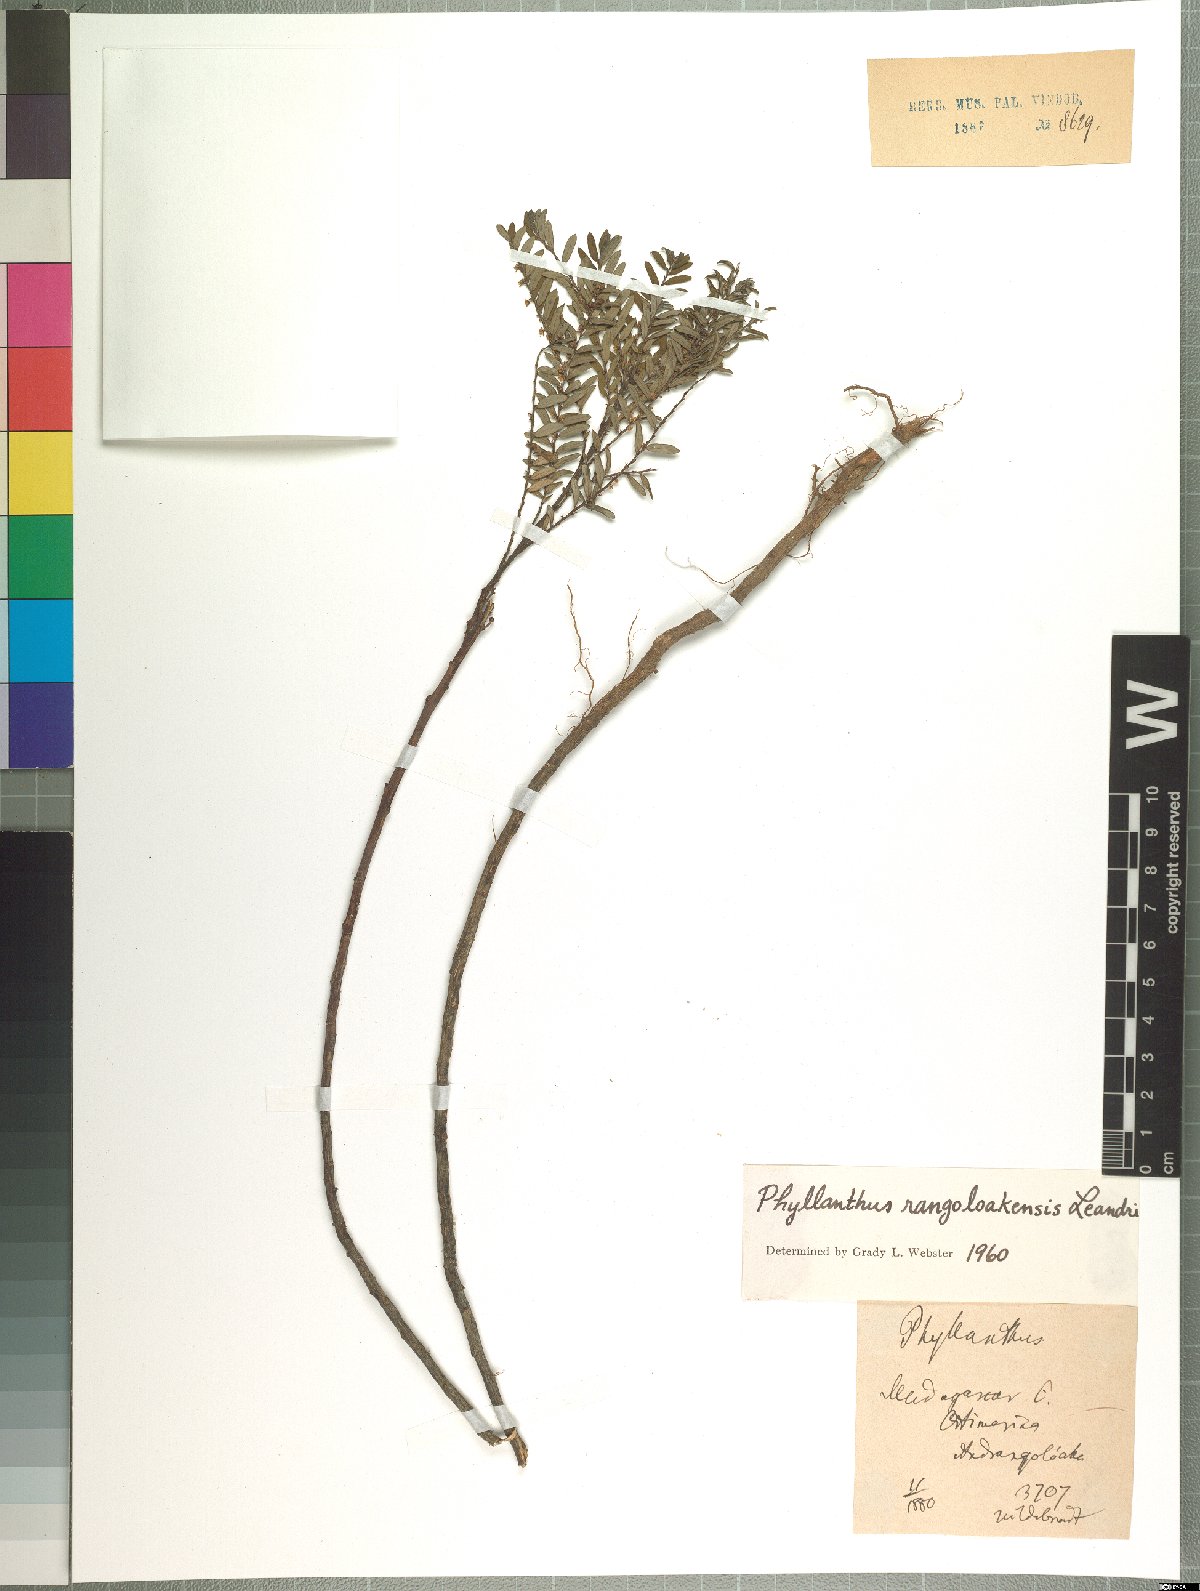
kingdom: Plantae
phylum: Tracheophyta
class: Magnoliopsida
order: Malpighiales
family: Phyllanthaceae
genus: Phyllanthus
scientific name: Phyllanthus rangoloakensis
